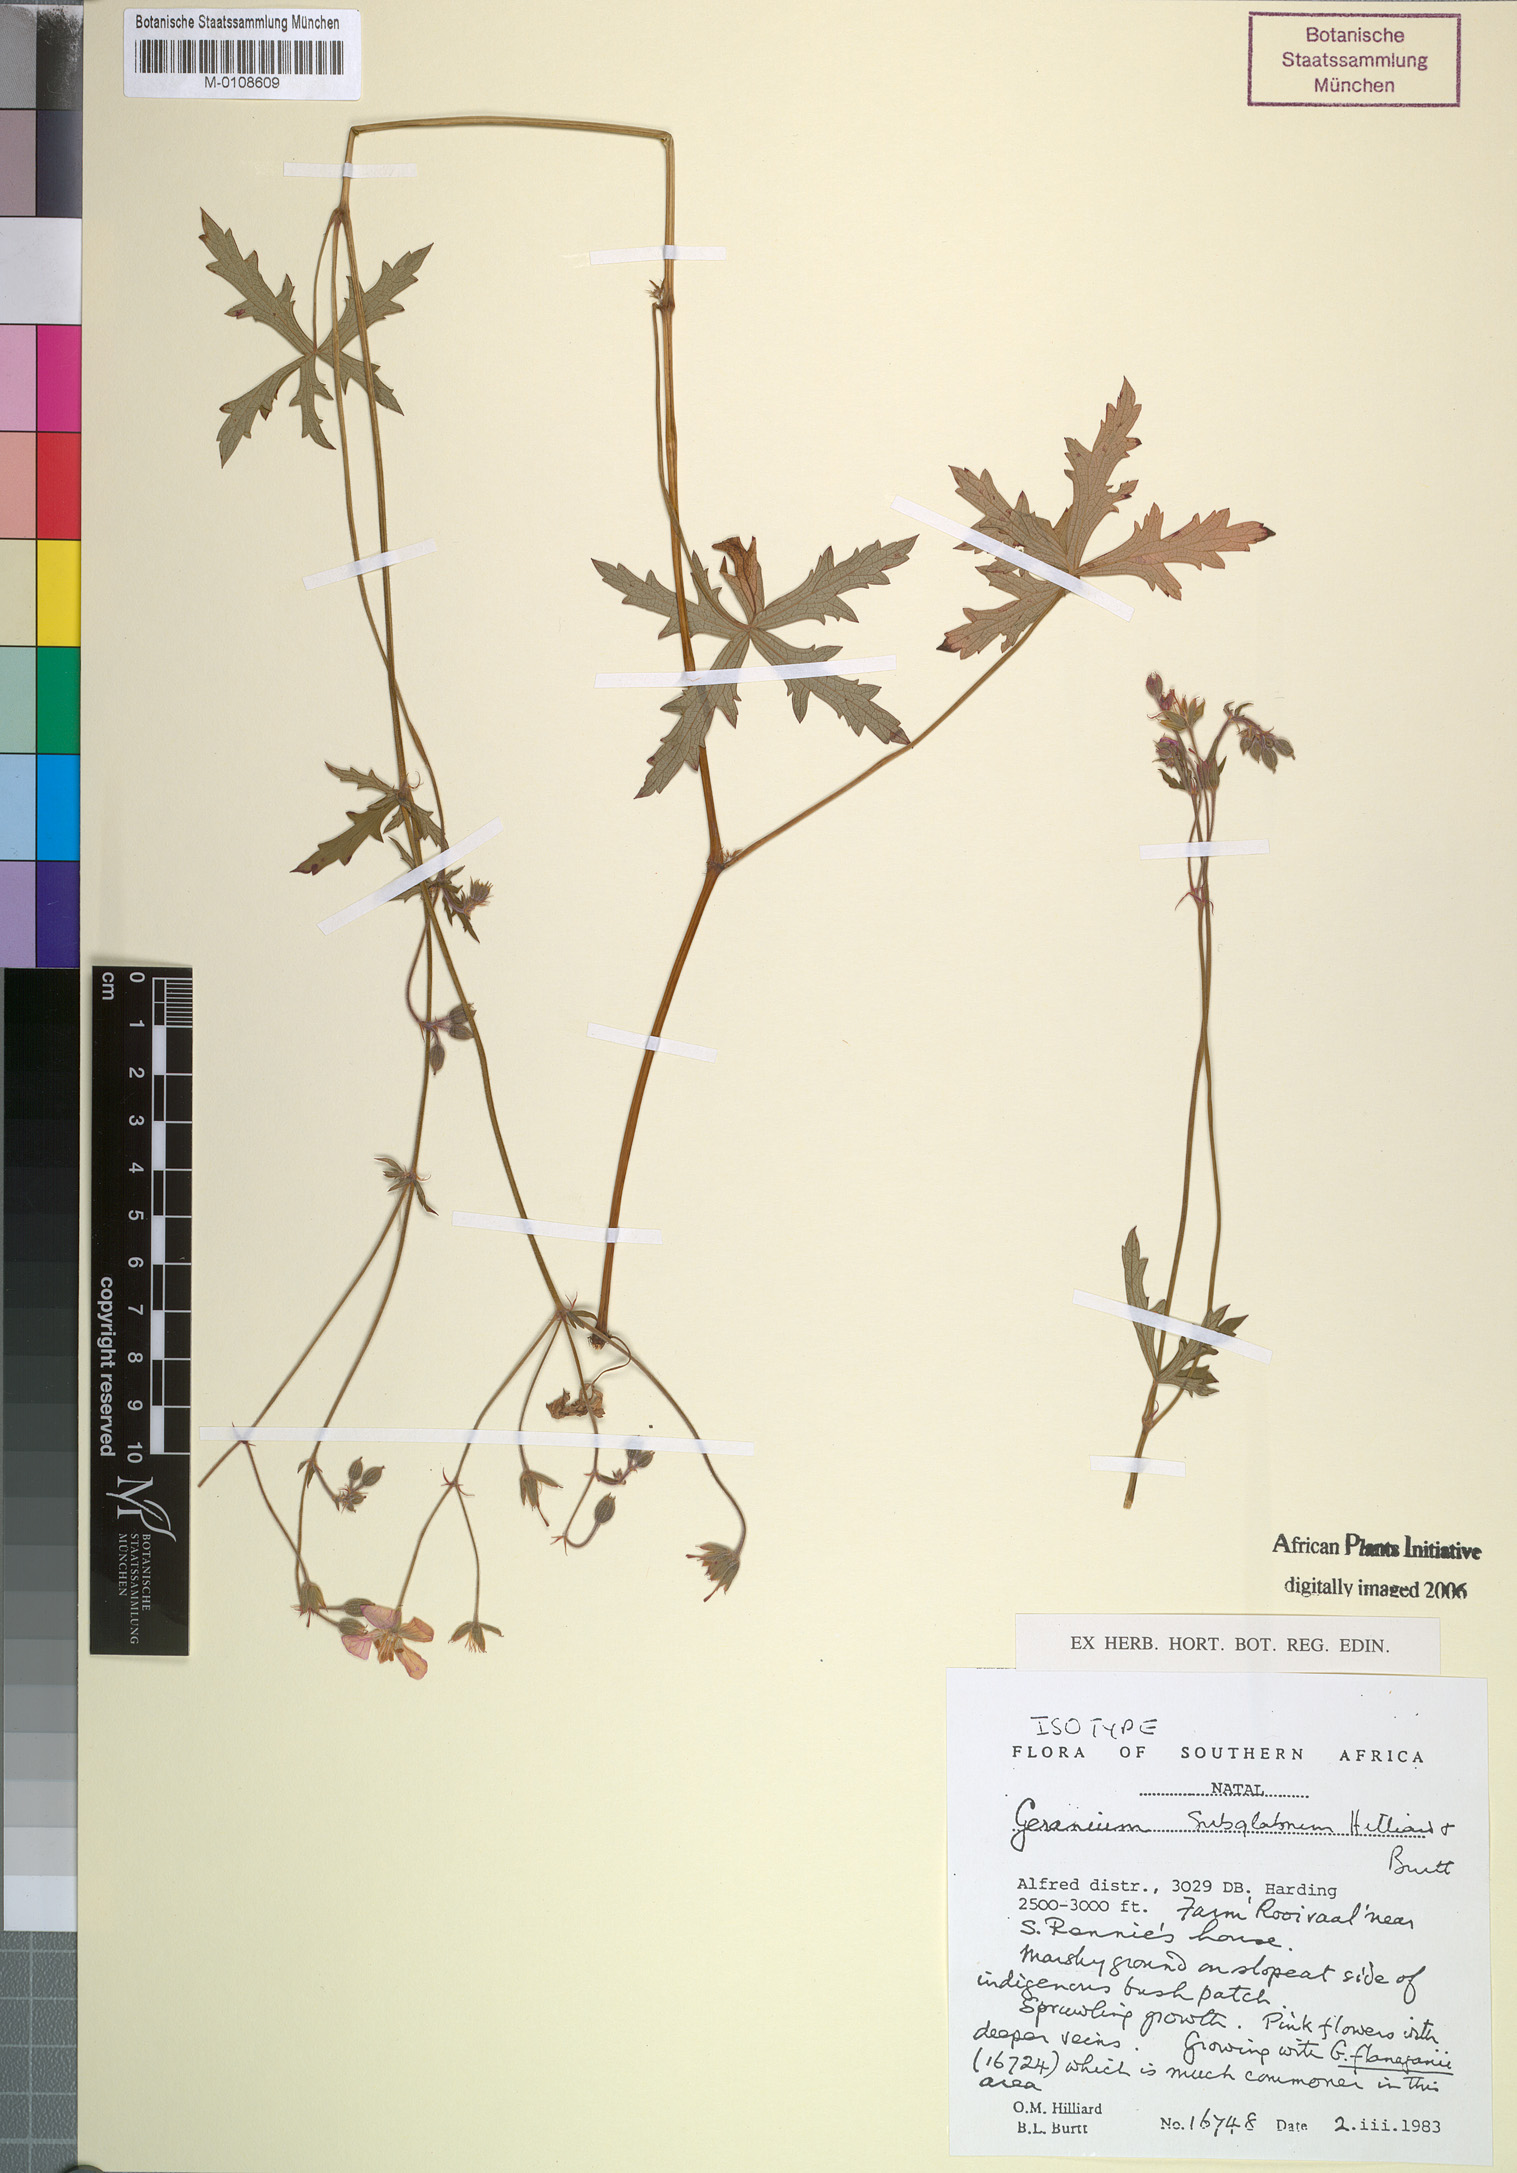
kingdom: Plantae
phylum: Tracheophyta
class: Magnoliopsida
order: Geraniales
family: Geraniaceae
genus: Geranium
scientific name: Geranium subglabrum
